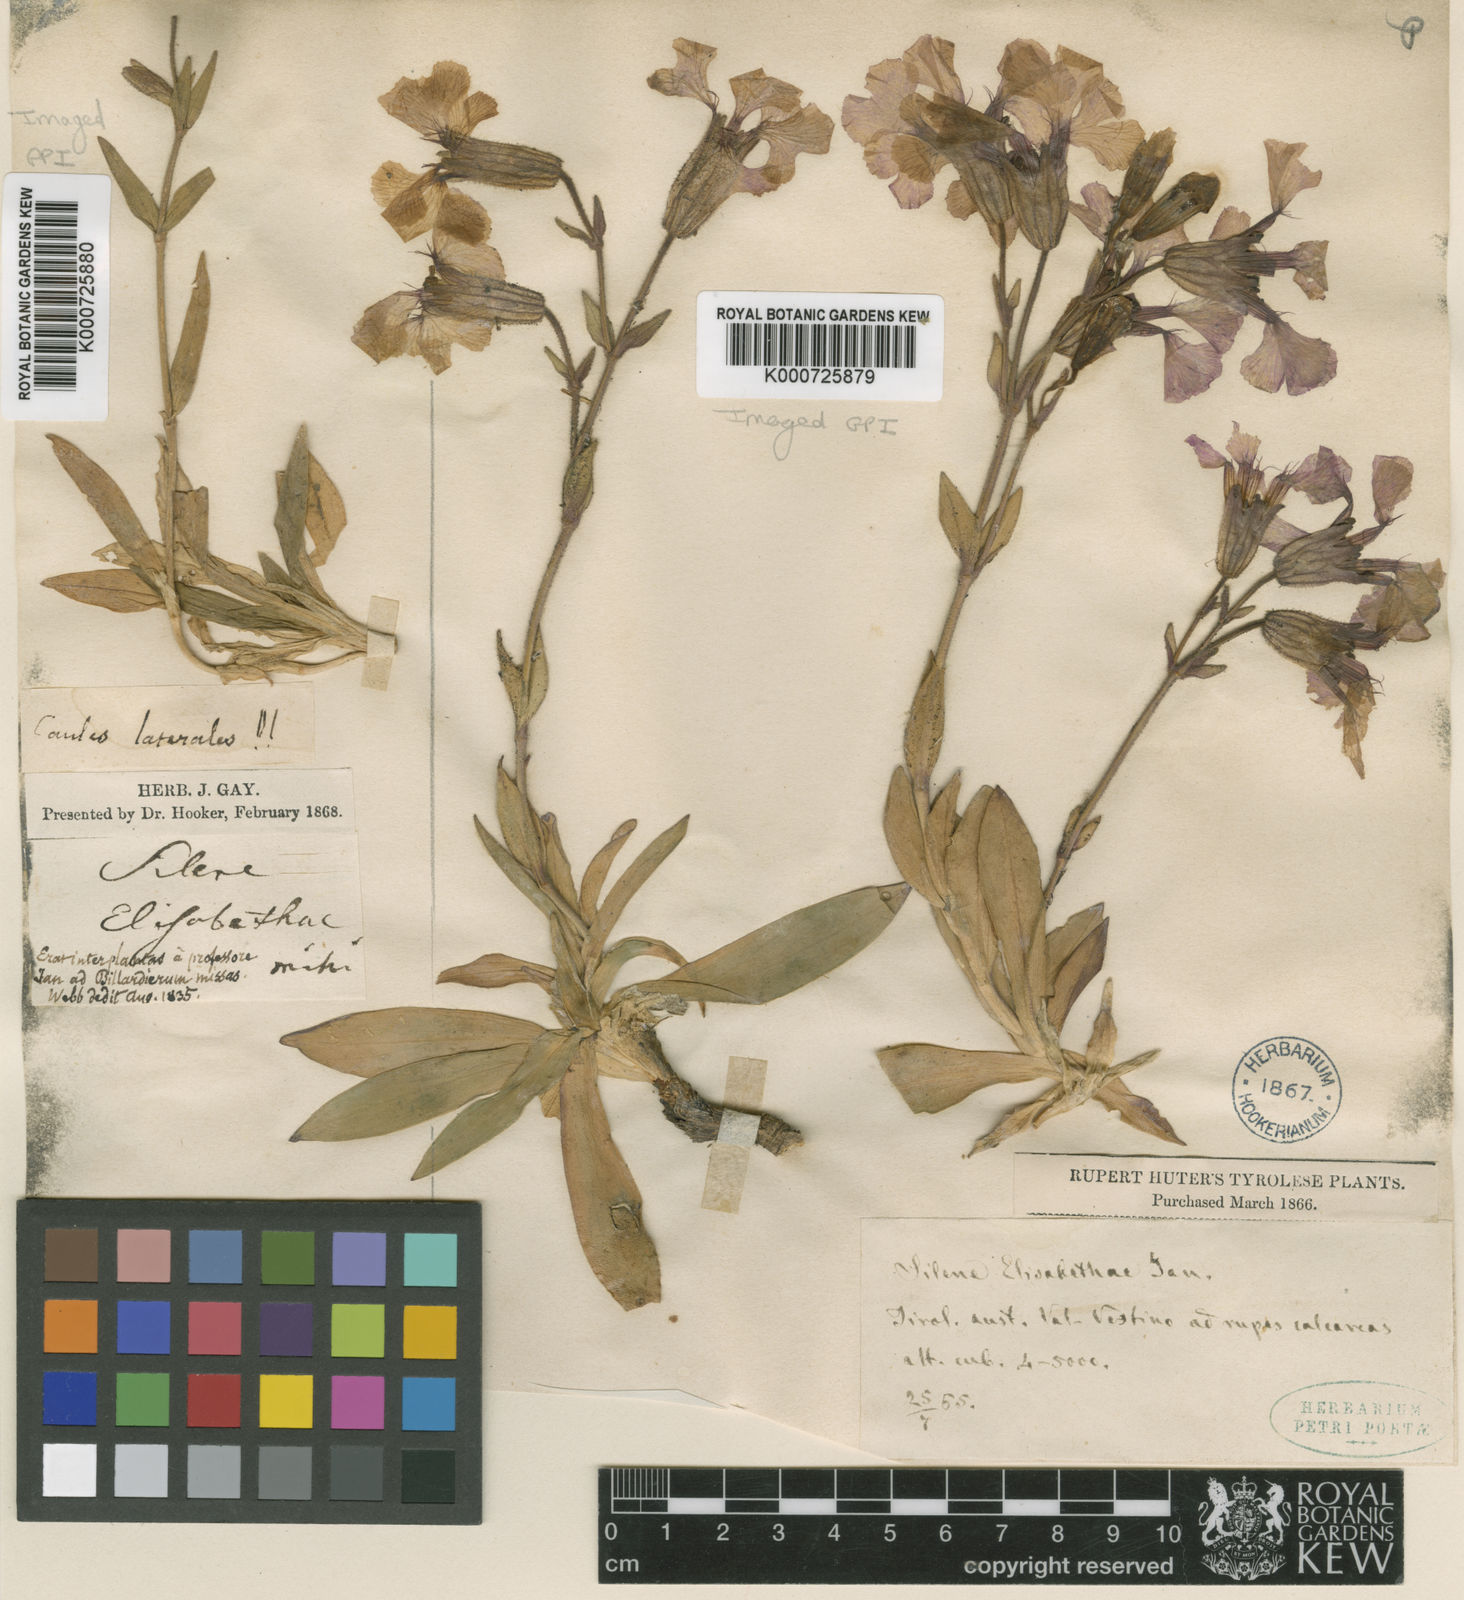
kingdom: Plantae
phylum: Tracheophyta
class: Magnoliopsida
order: Caryophyllales
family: Caryophyllaceae
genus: Silene
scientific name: Silene elisabethae
